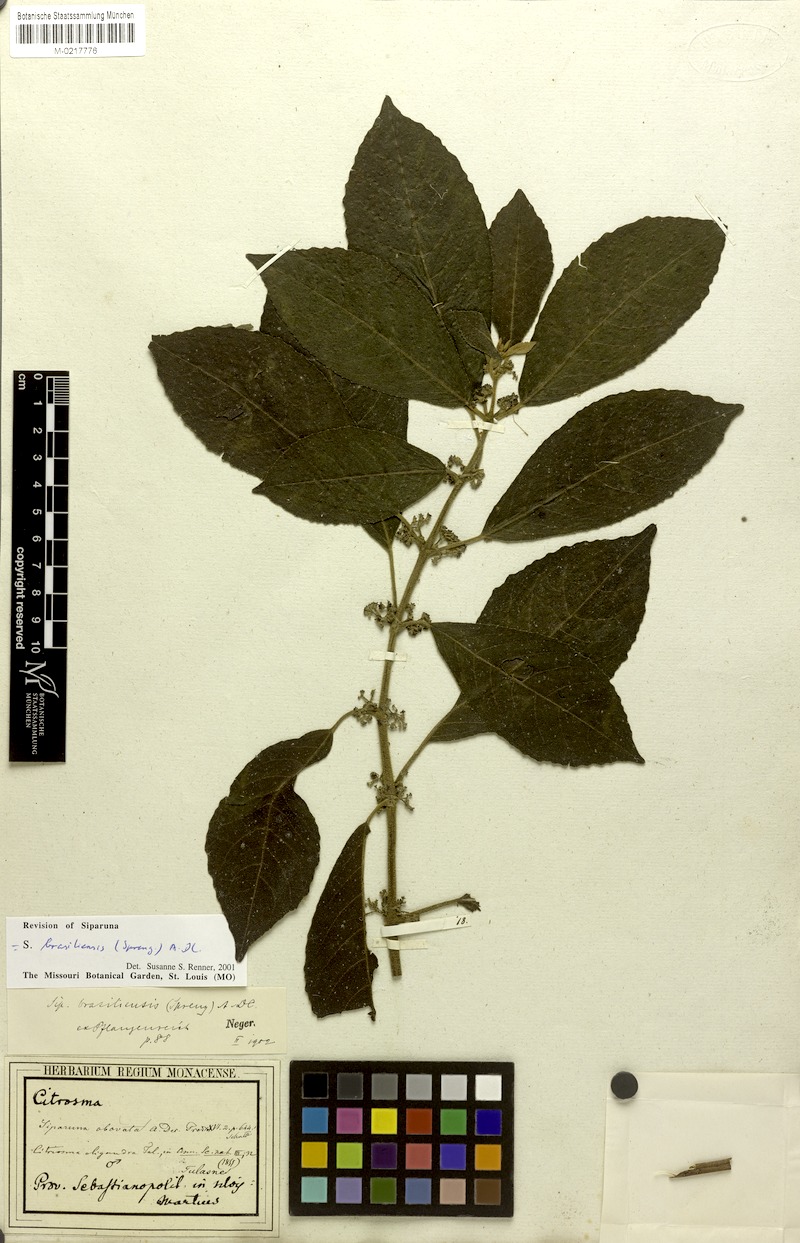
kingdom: Plantae
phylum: Tracheophyta
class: Magnoliopsida
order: Laurales
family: Siparunaceae
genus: Siparuna
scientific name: Siparuna brasiliensis
